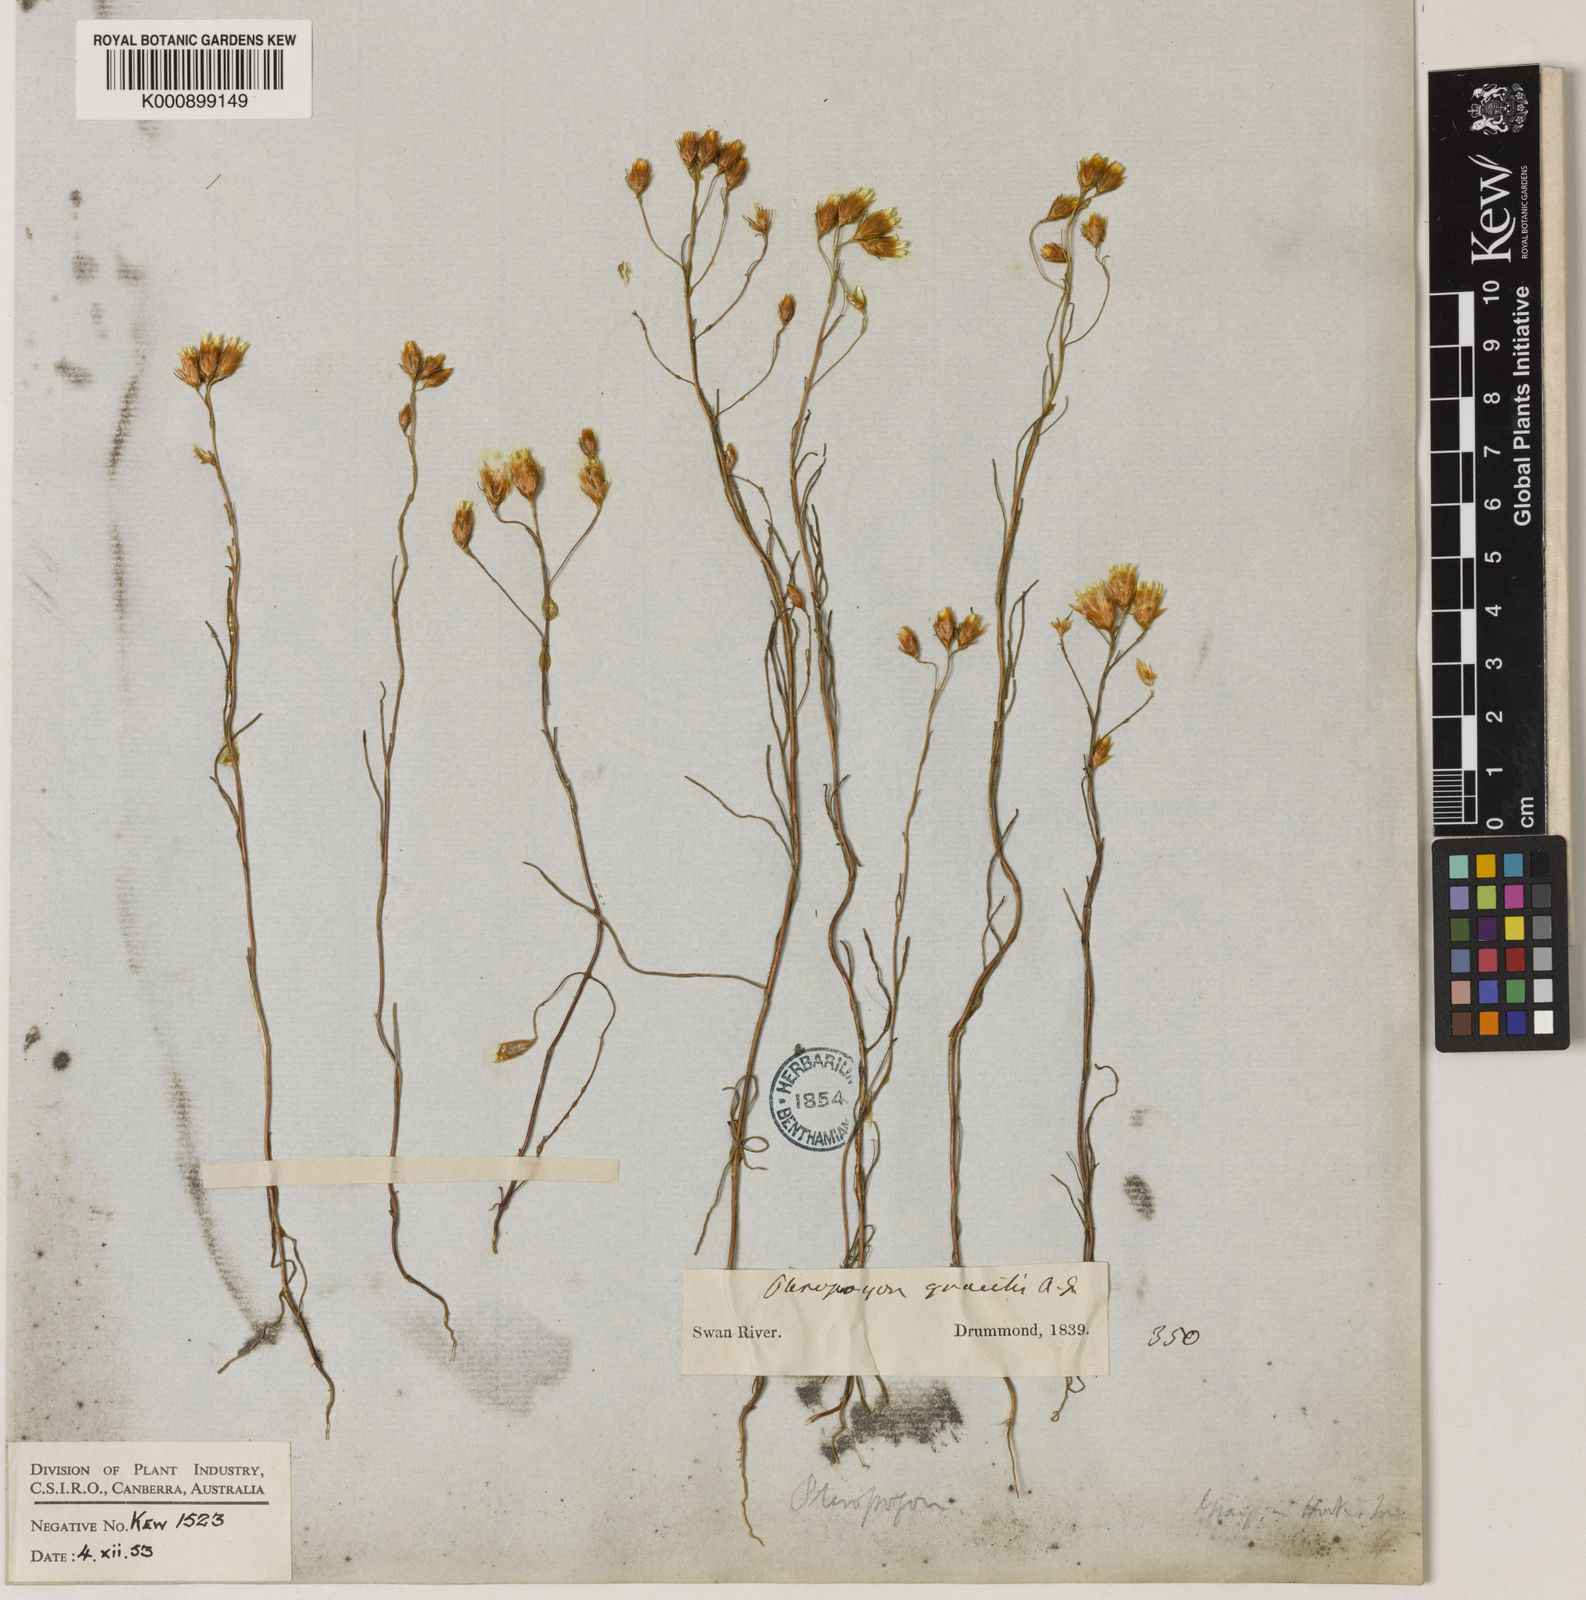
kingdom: Plantae
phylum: Tracheophyta
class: Magnoliopsida
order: Asterales
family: Asteraceae
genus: Erymophyllum
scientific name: Erymophyllum tenellum
